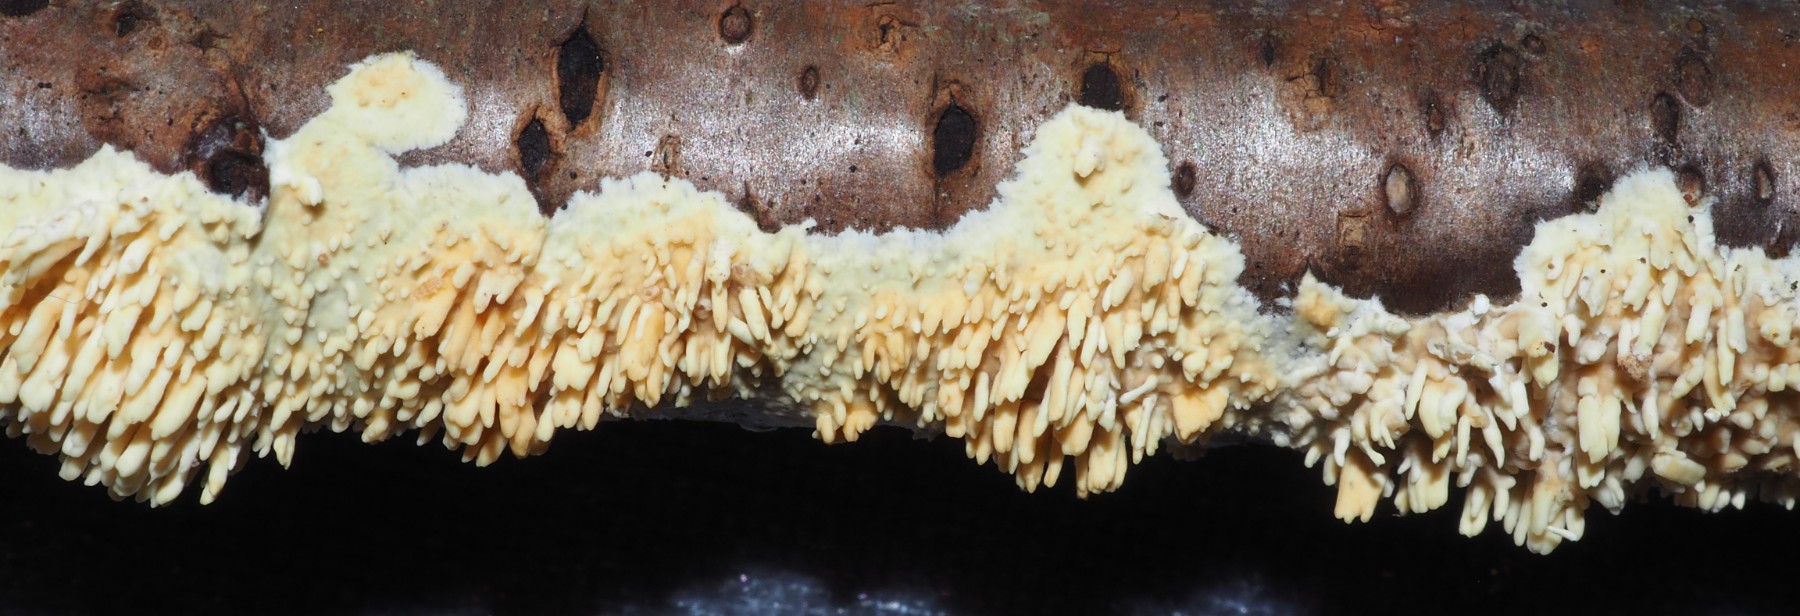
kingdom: Fungi
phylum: Basidiomycota
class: Agaricomycetes
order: Hymenochaetales
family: Schizoporaceae
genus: Xylodon
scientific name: Xylodon radula
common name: grovtandet kalkskind
